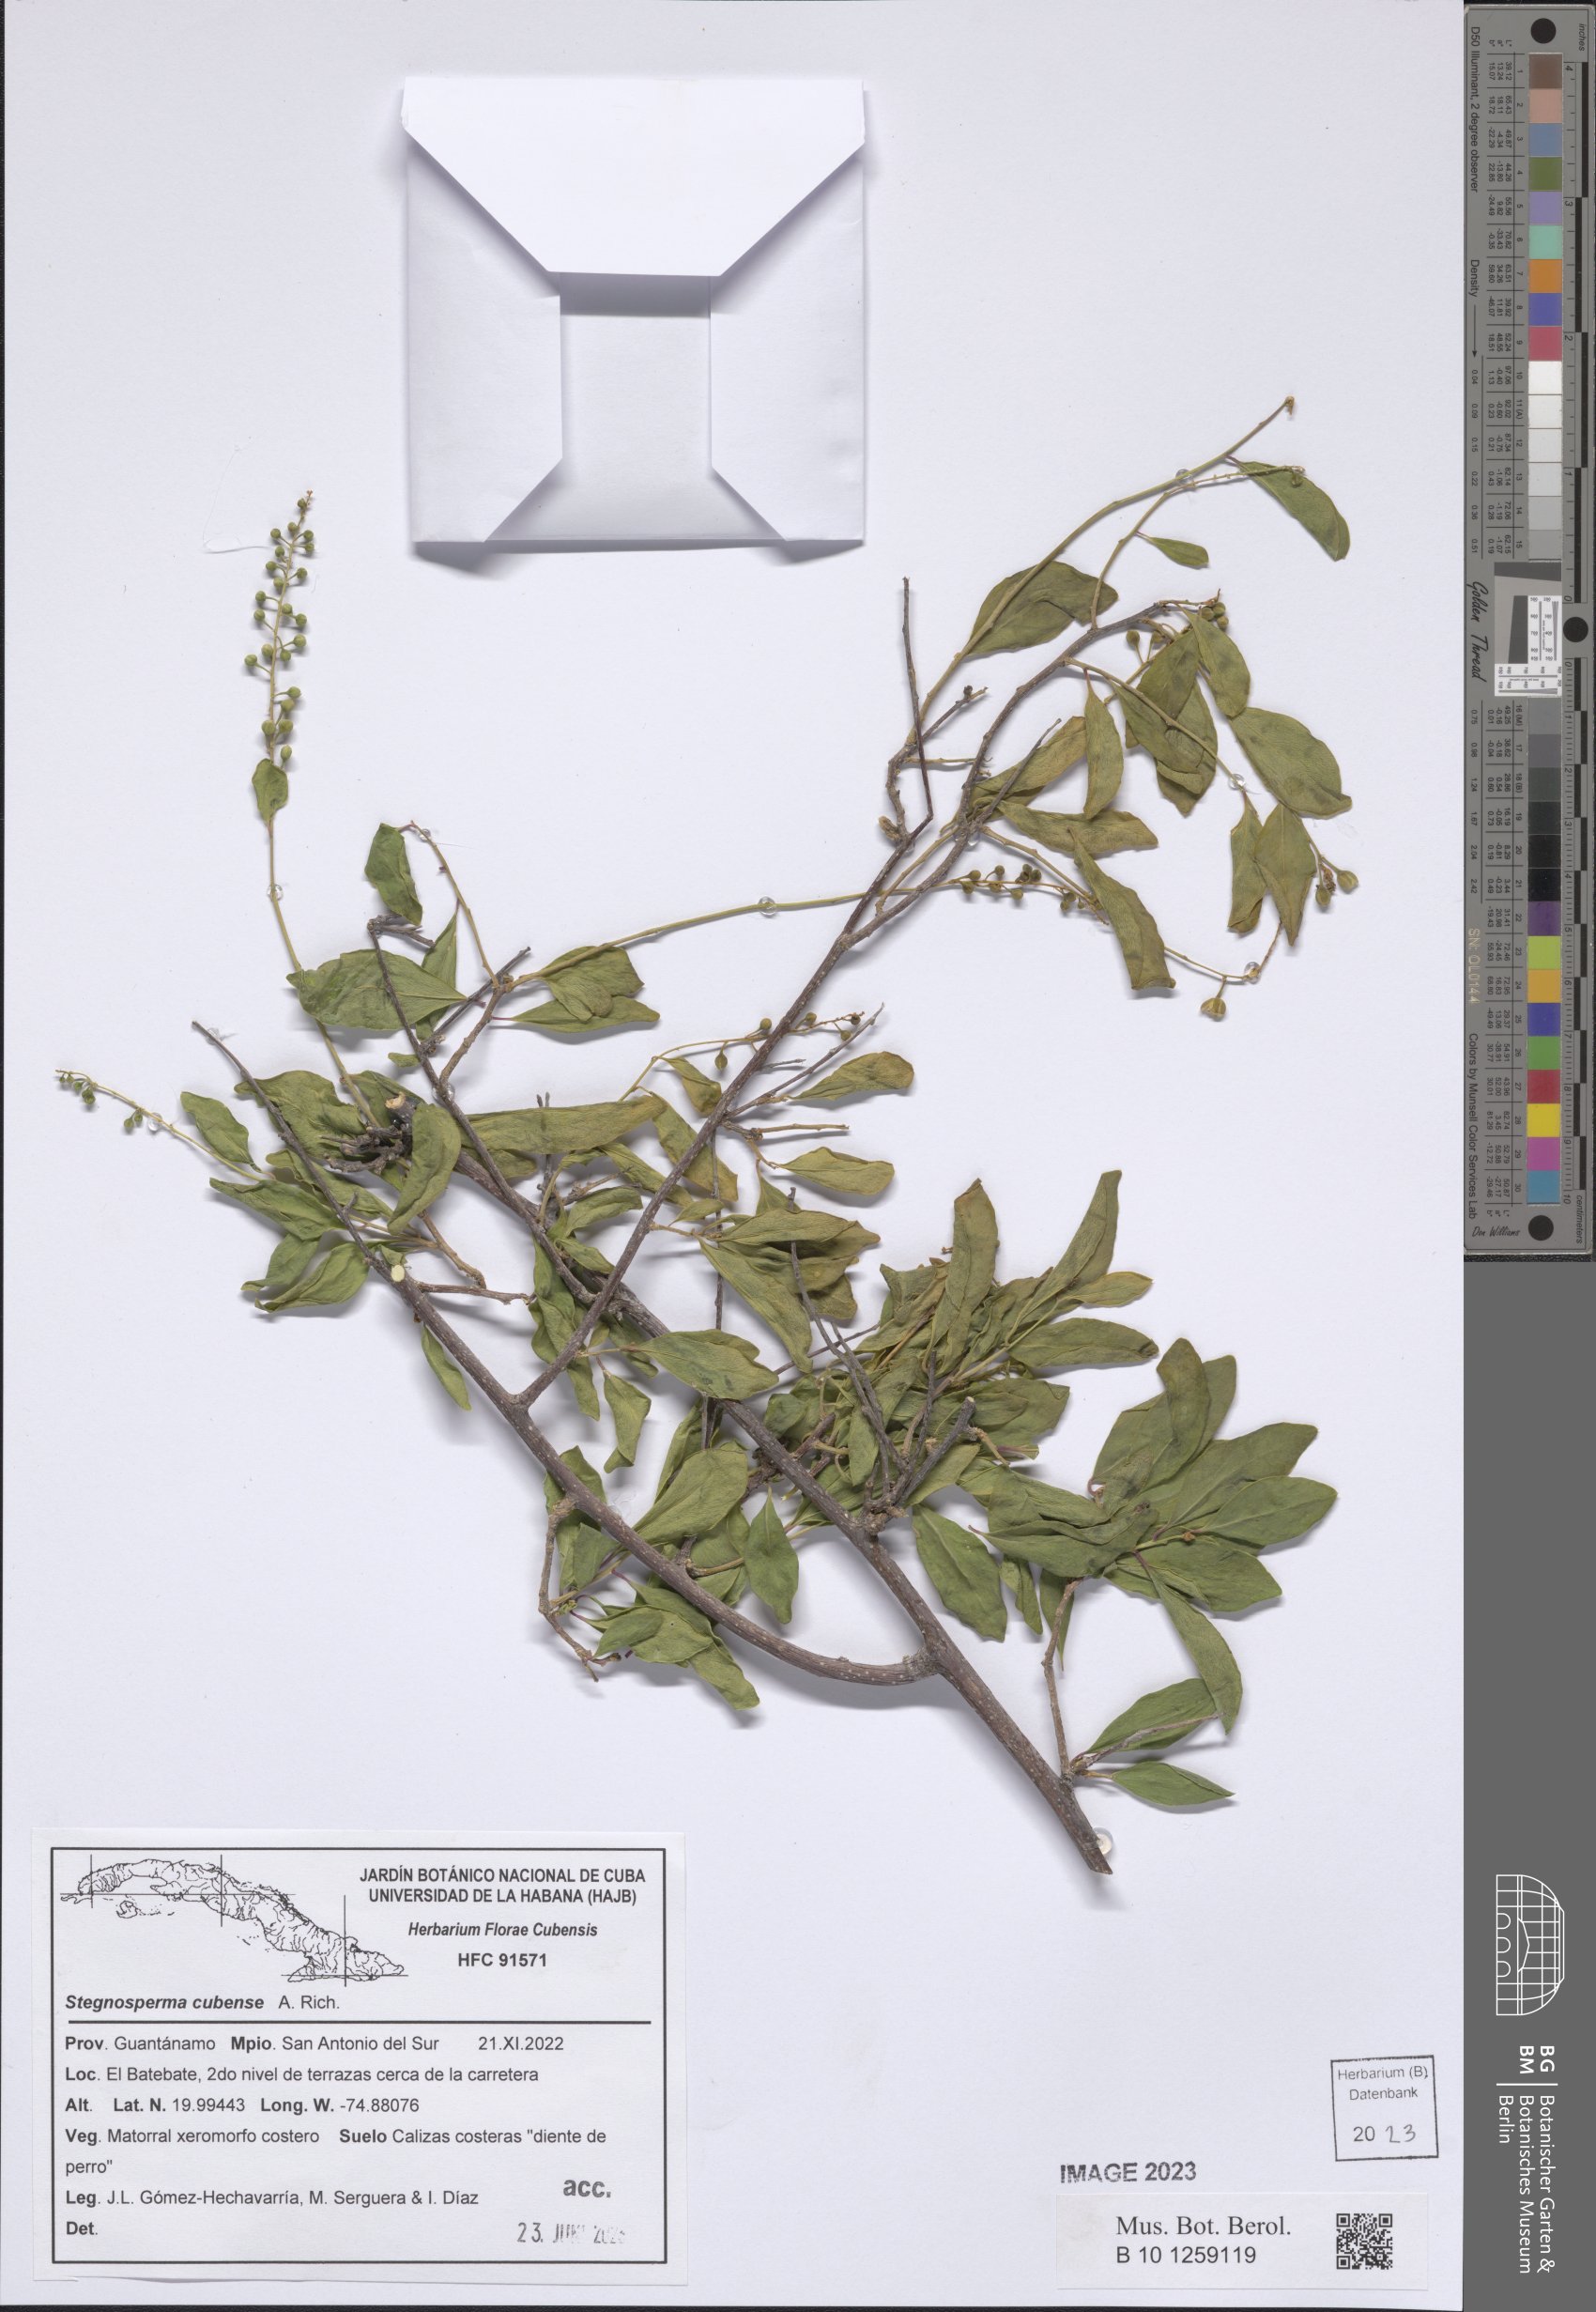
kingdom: Plantae
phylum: Tracheophyta
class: Magnoliopsida
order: Caryophyllales
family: Stegnospermataceae
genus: Stegnosperma
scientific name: Stegnosperma cubense
